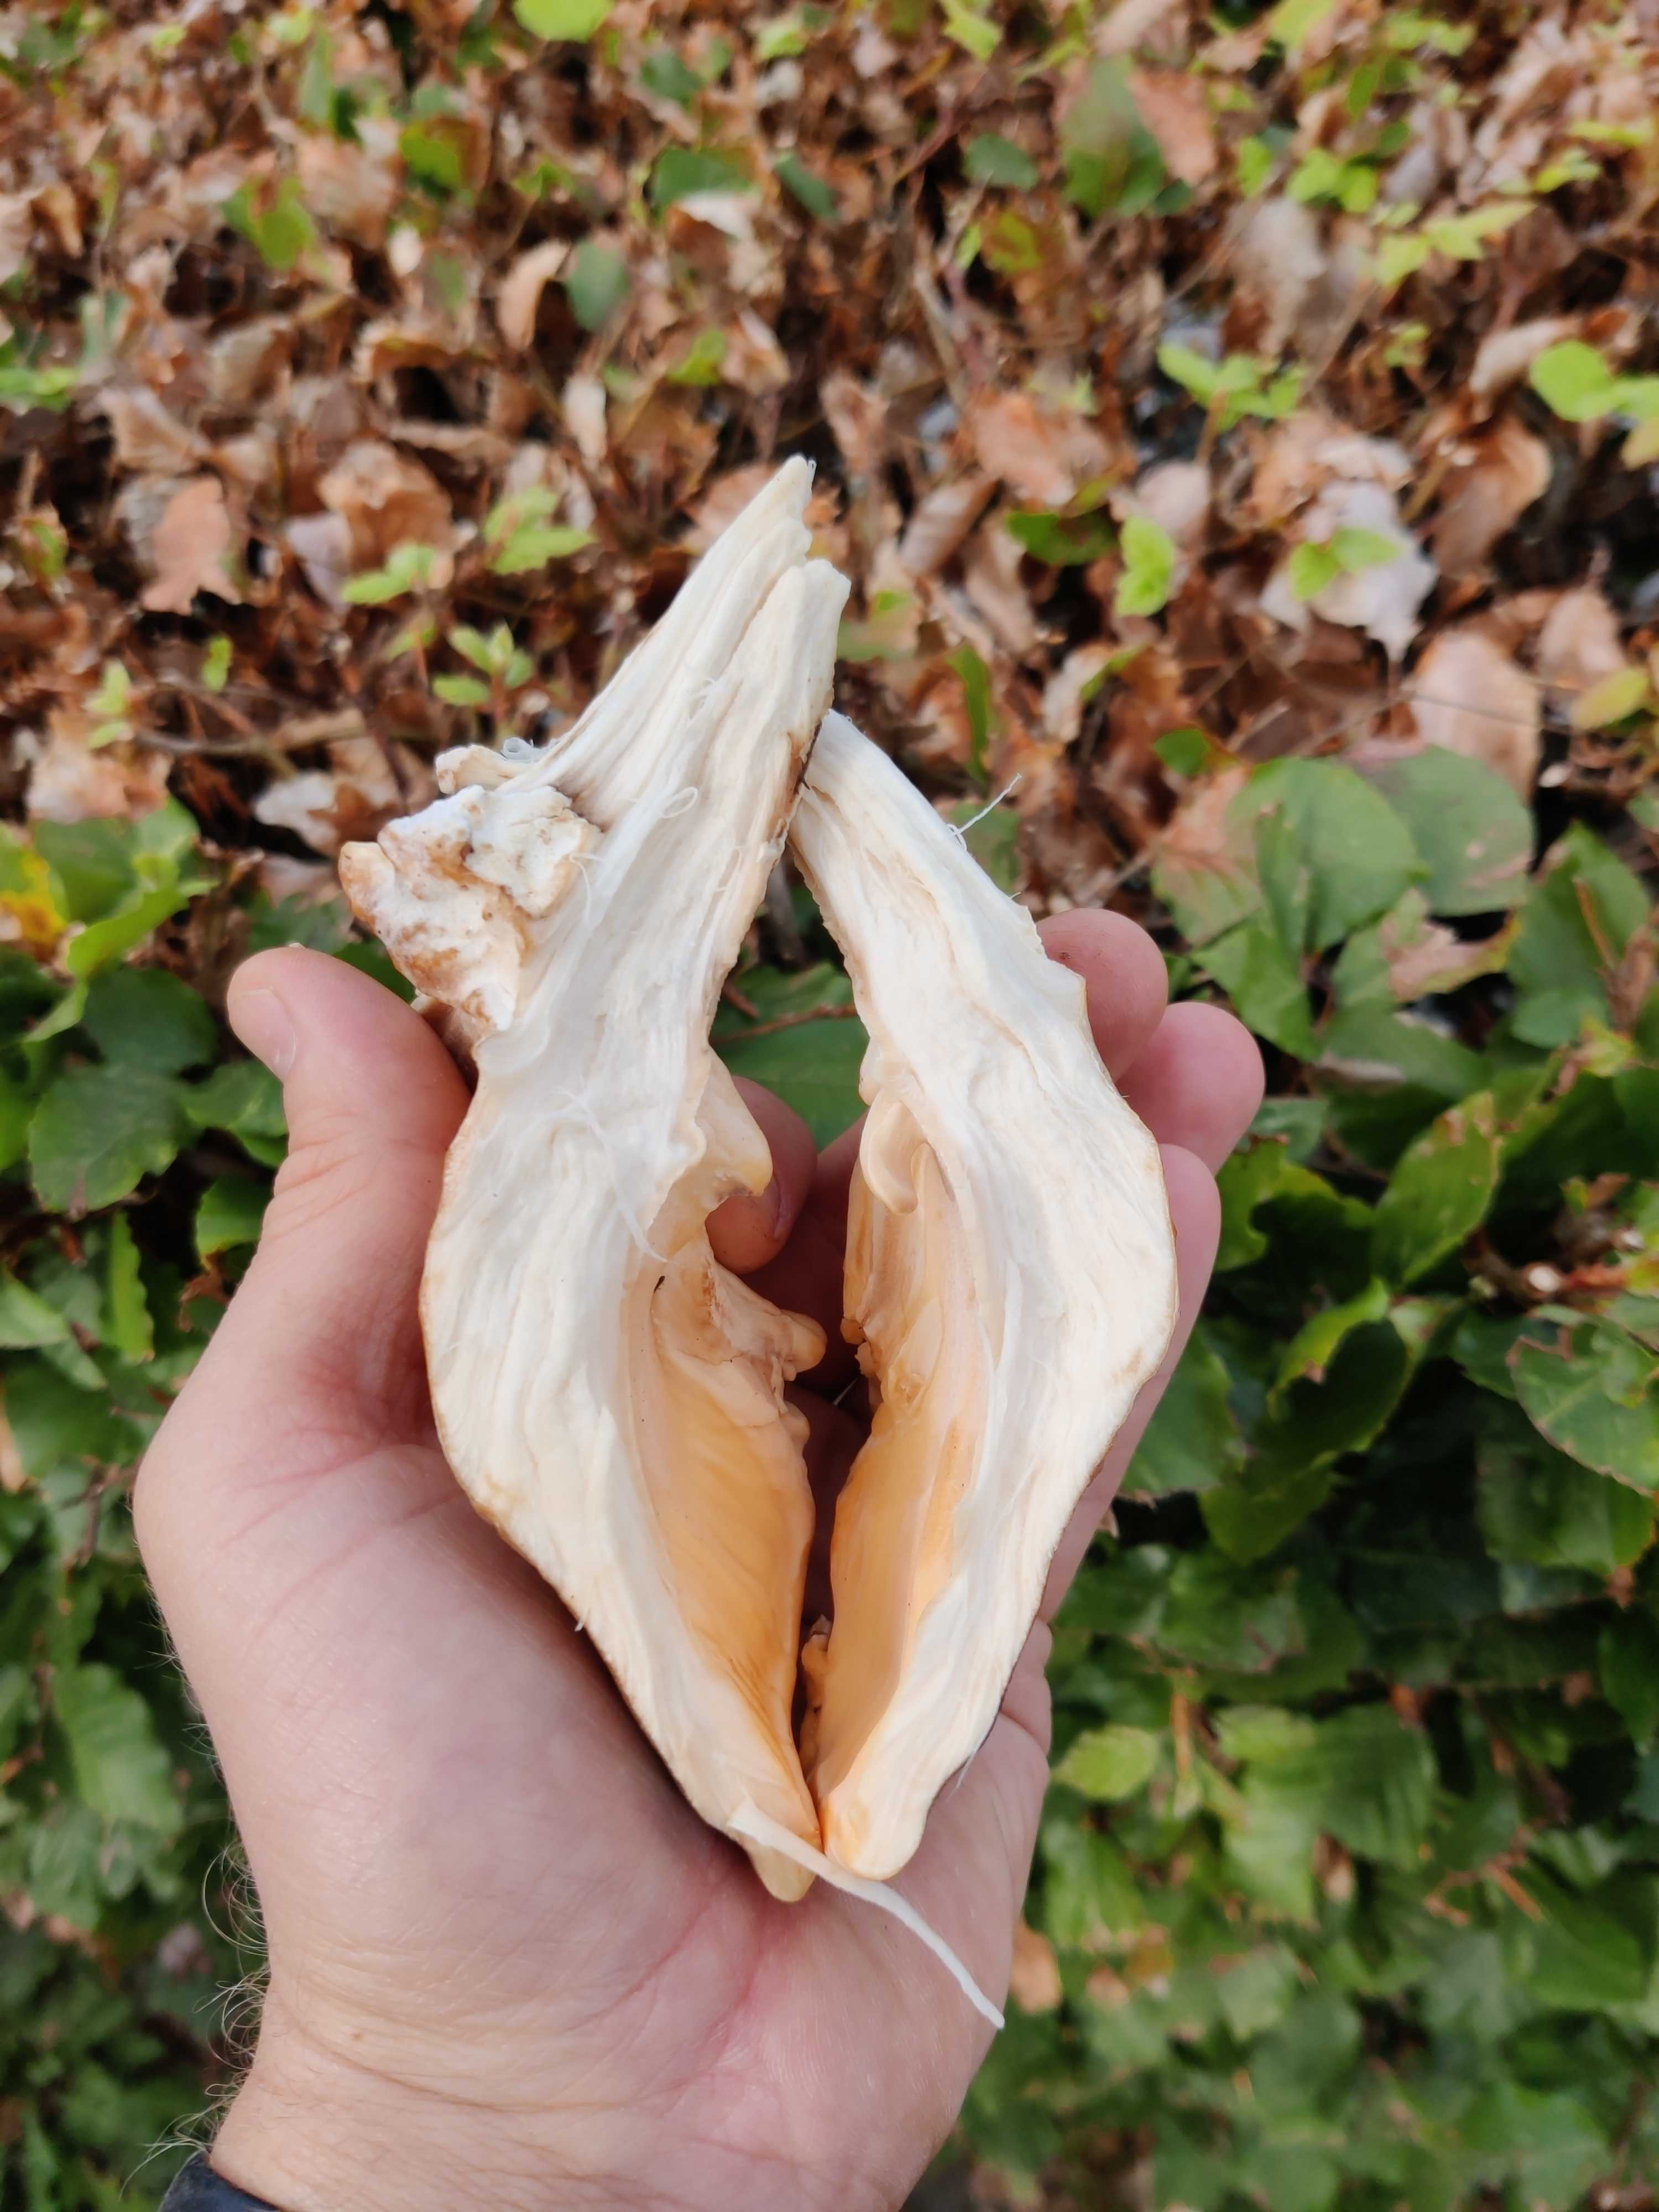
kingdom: Fungi
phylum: Basidiomycota
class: Agaricomycetes
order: Polyporales
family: Meripilaceae
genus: Meripilus
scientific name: Meripilus giganteus
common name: kæmpeporesvamp
